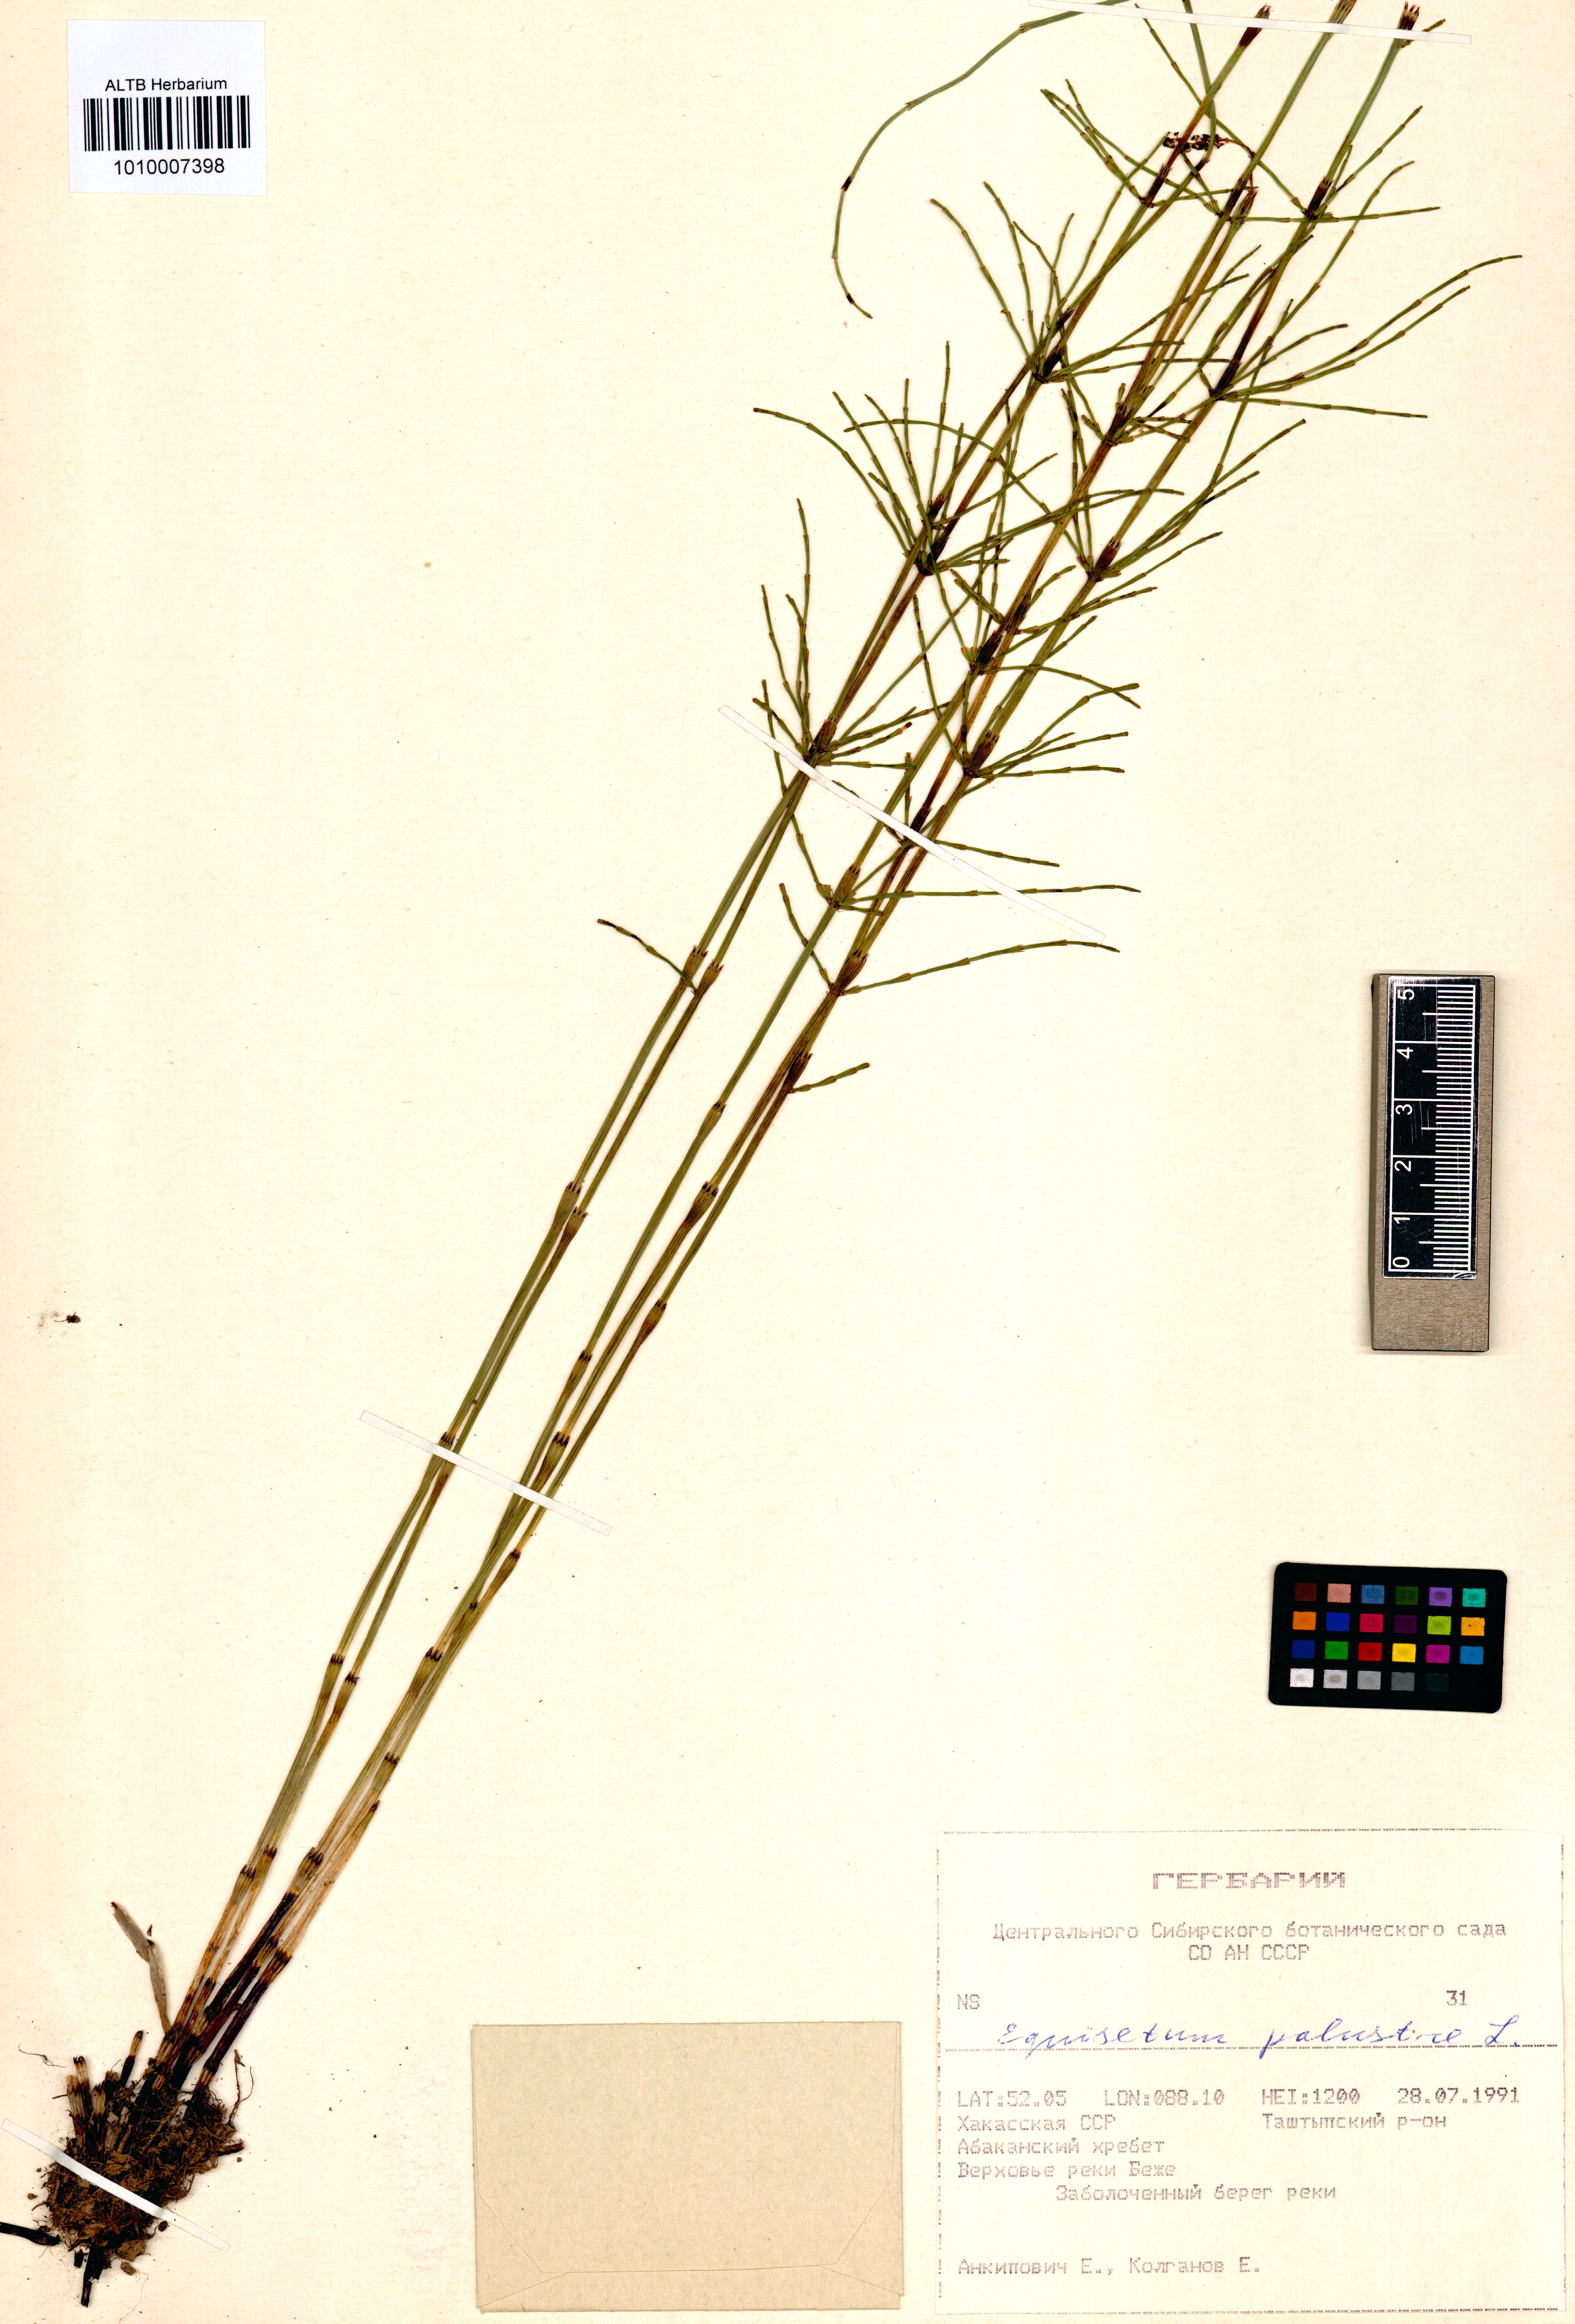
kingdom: Plantae
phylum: Tracheophyta
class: Polypodiopsida
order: Equisetales
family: Equisetaceae
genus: Equisetum
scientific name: Equisetum palustre
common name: Marsh horsetail
